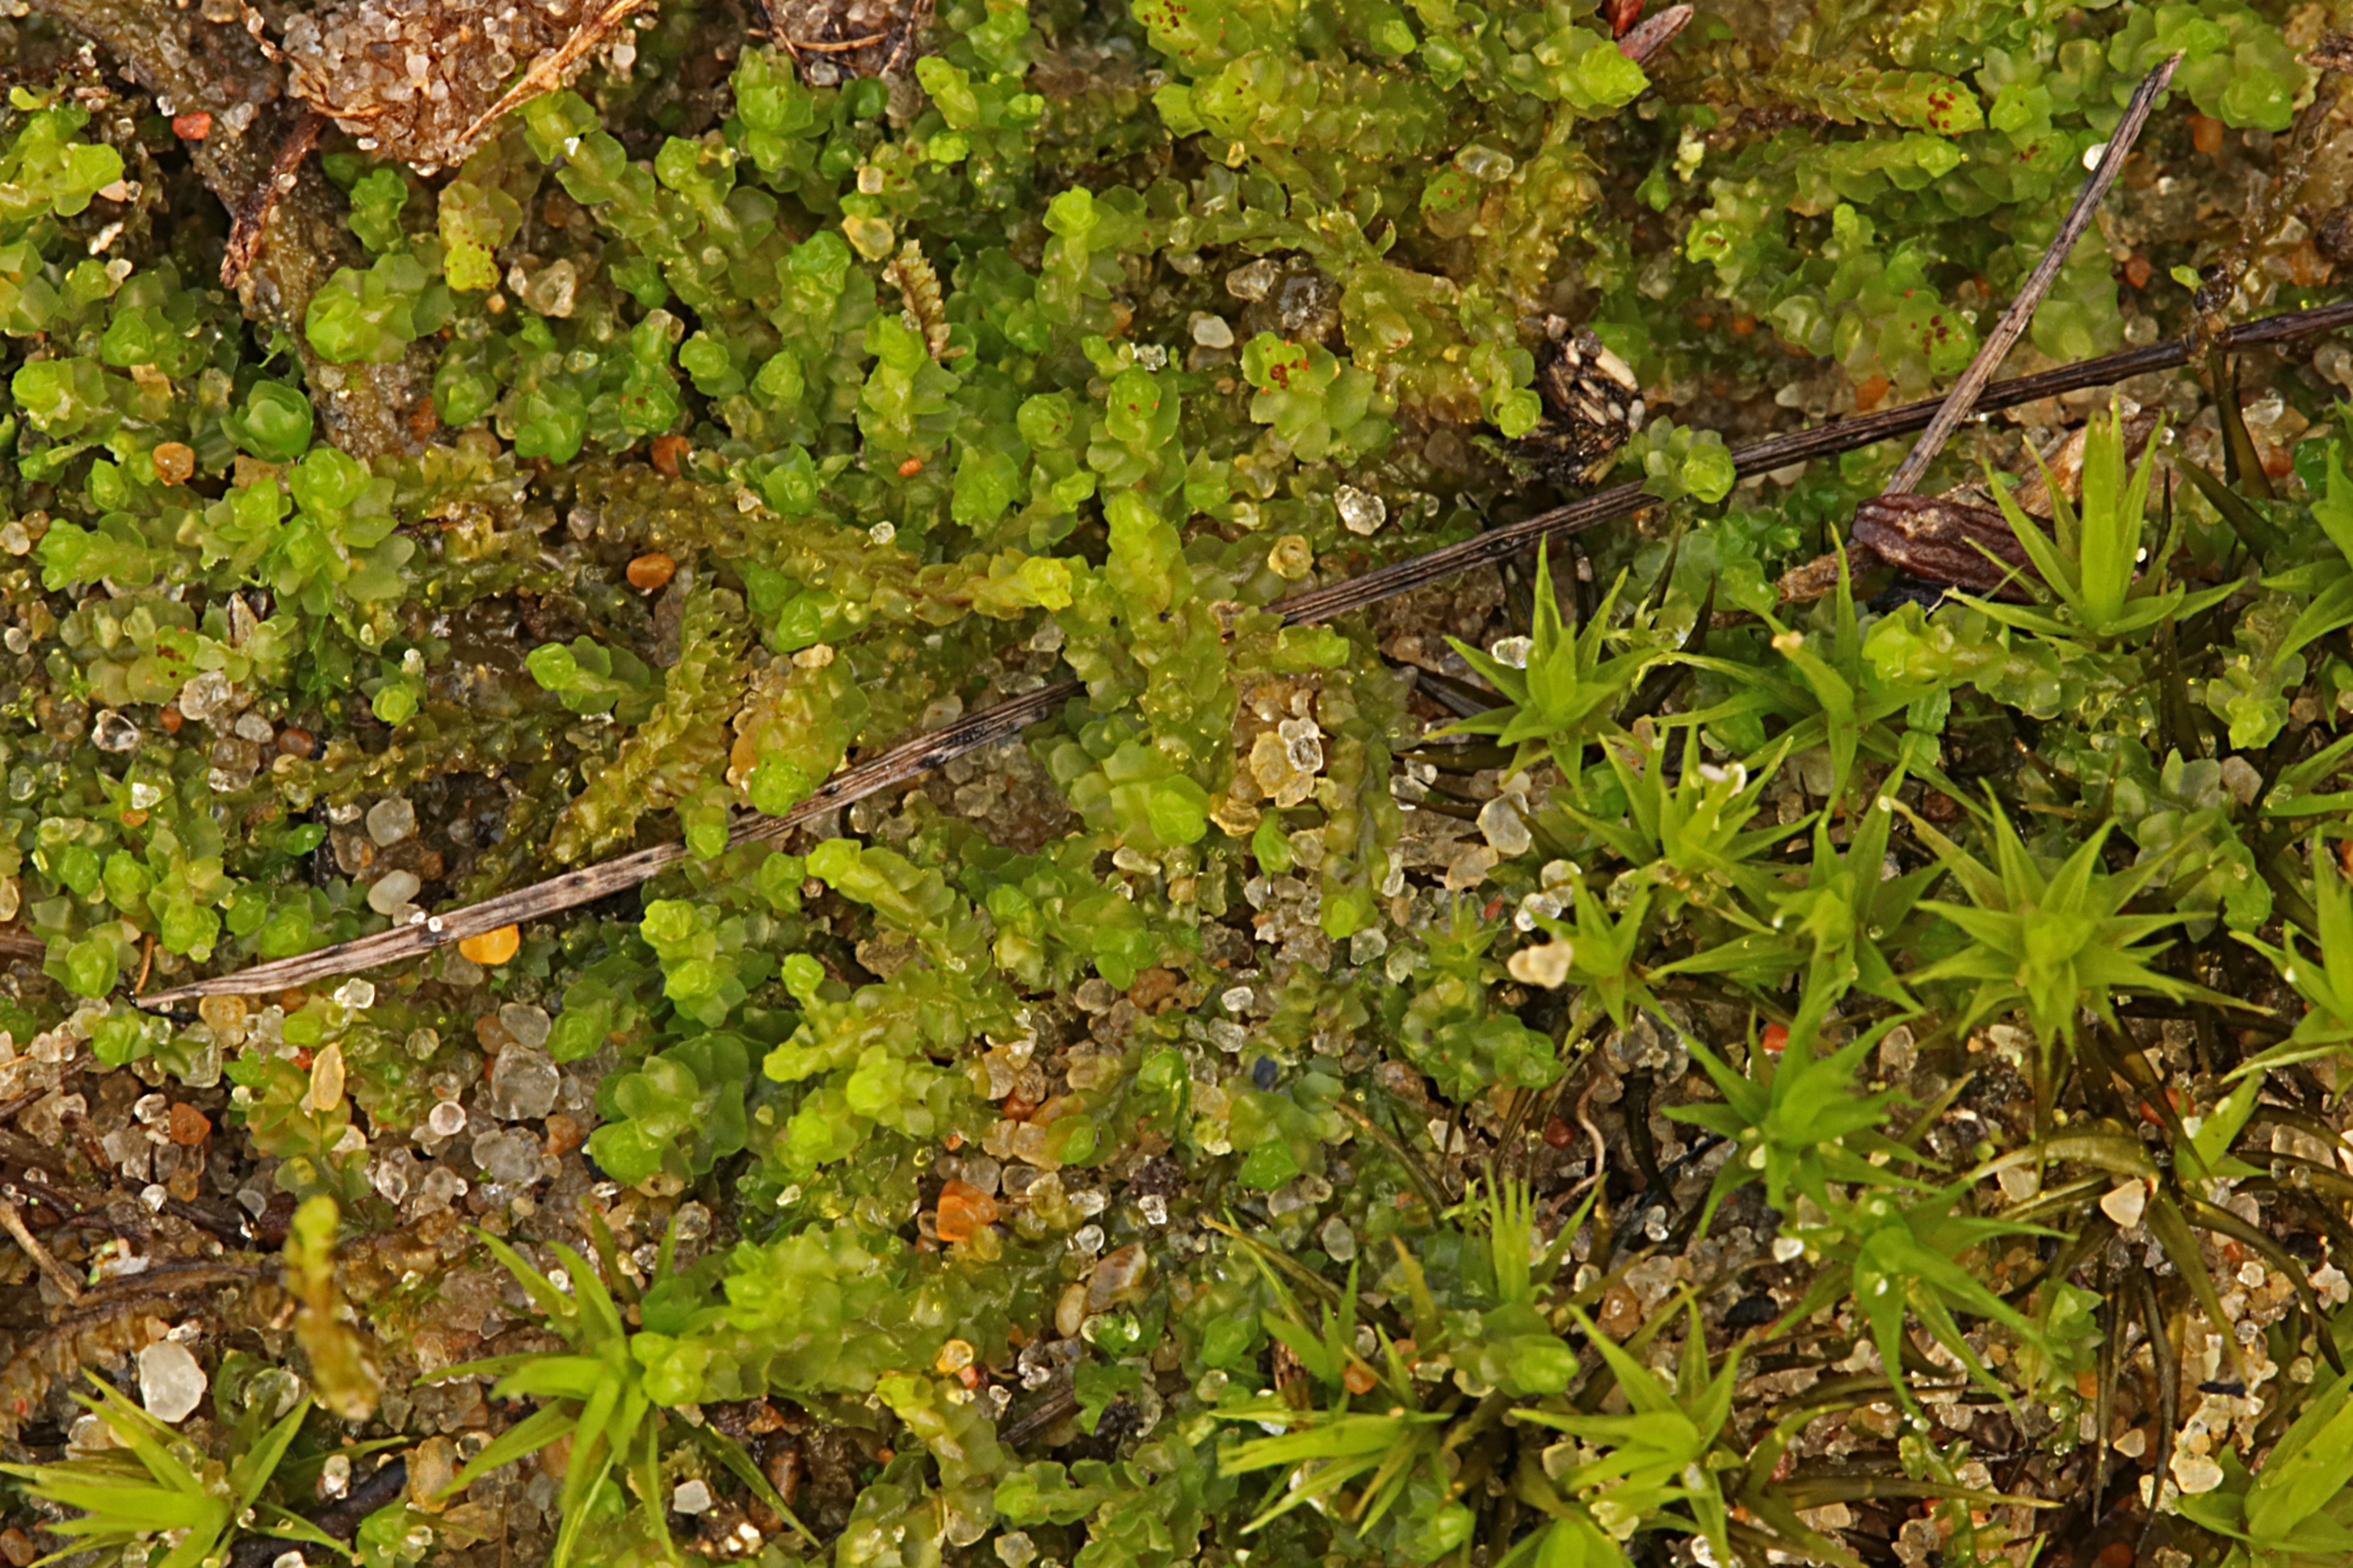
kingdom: Plantae
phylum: Marchantiophyta
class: Jungermanniopsida
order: Jungermanniales
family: Anastrophyllaceae
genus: Barbilophozia
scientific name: Barbilophozia hatcheri
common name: Spidsfliget flerfligmos
